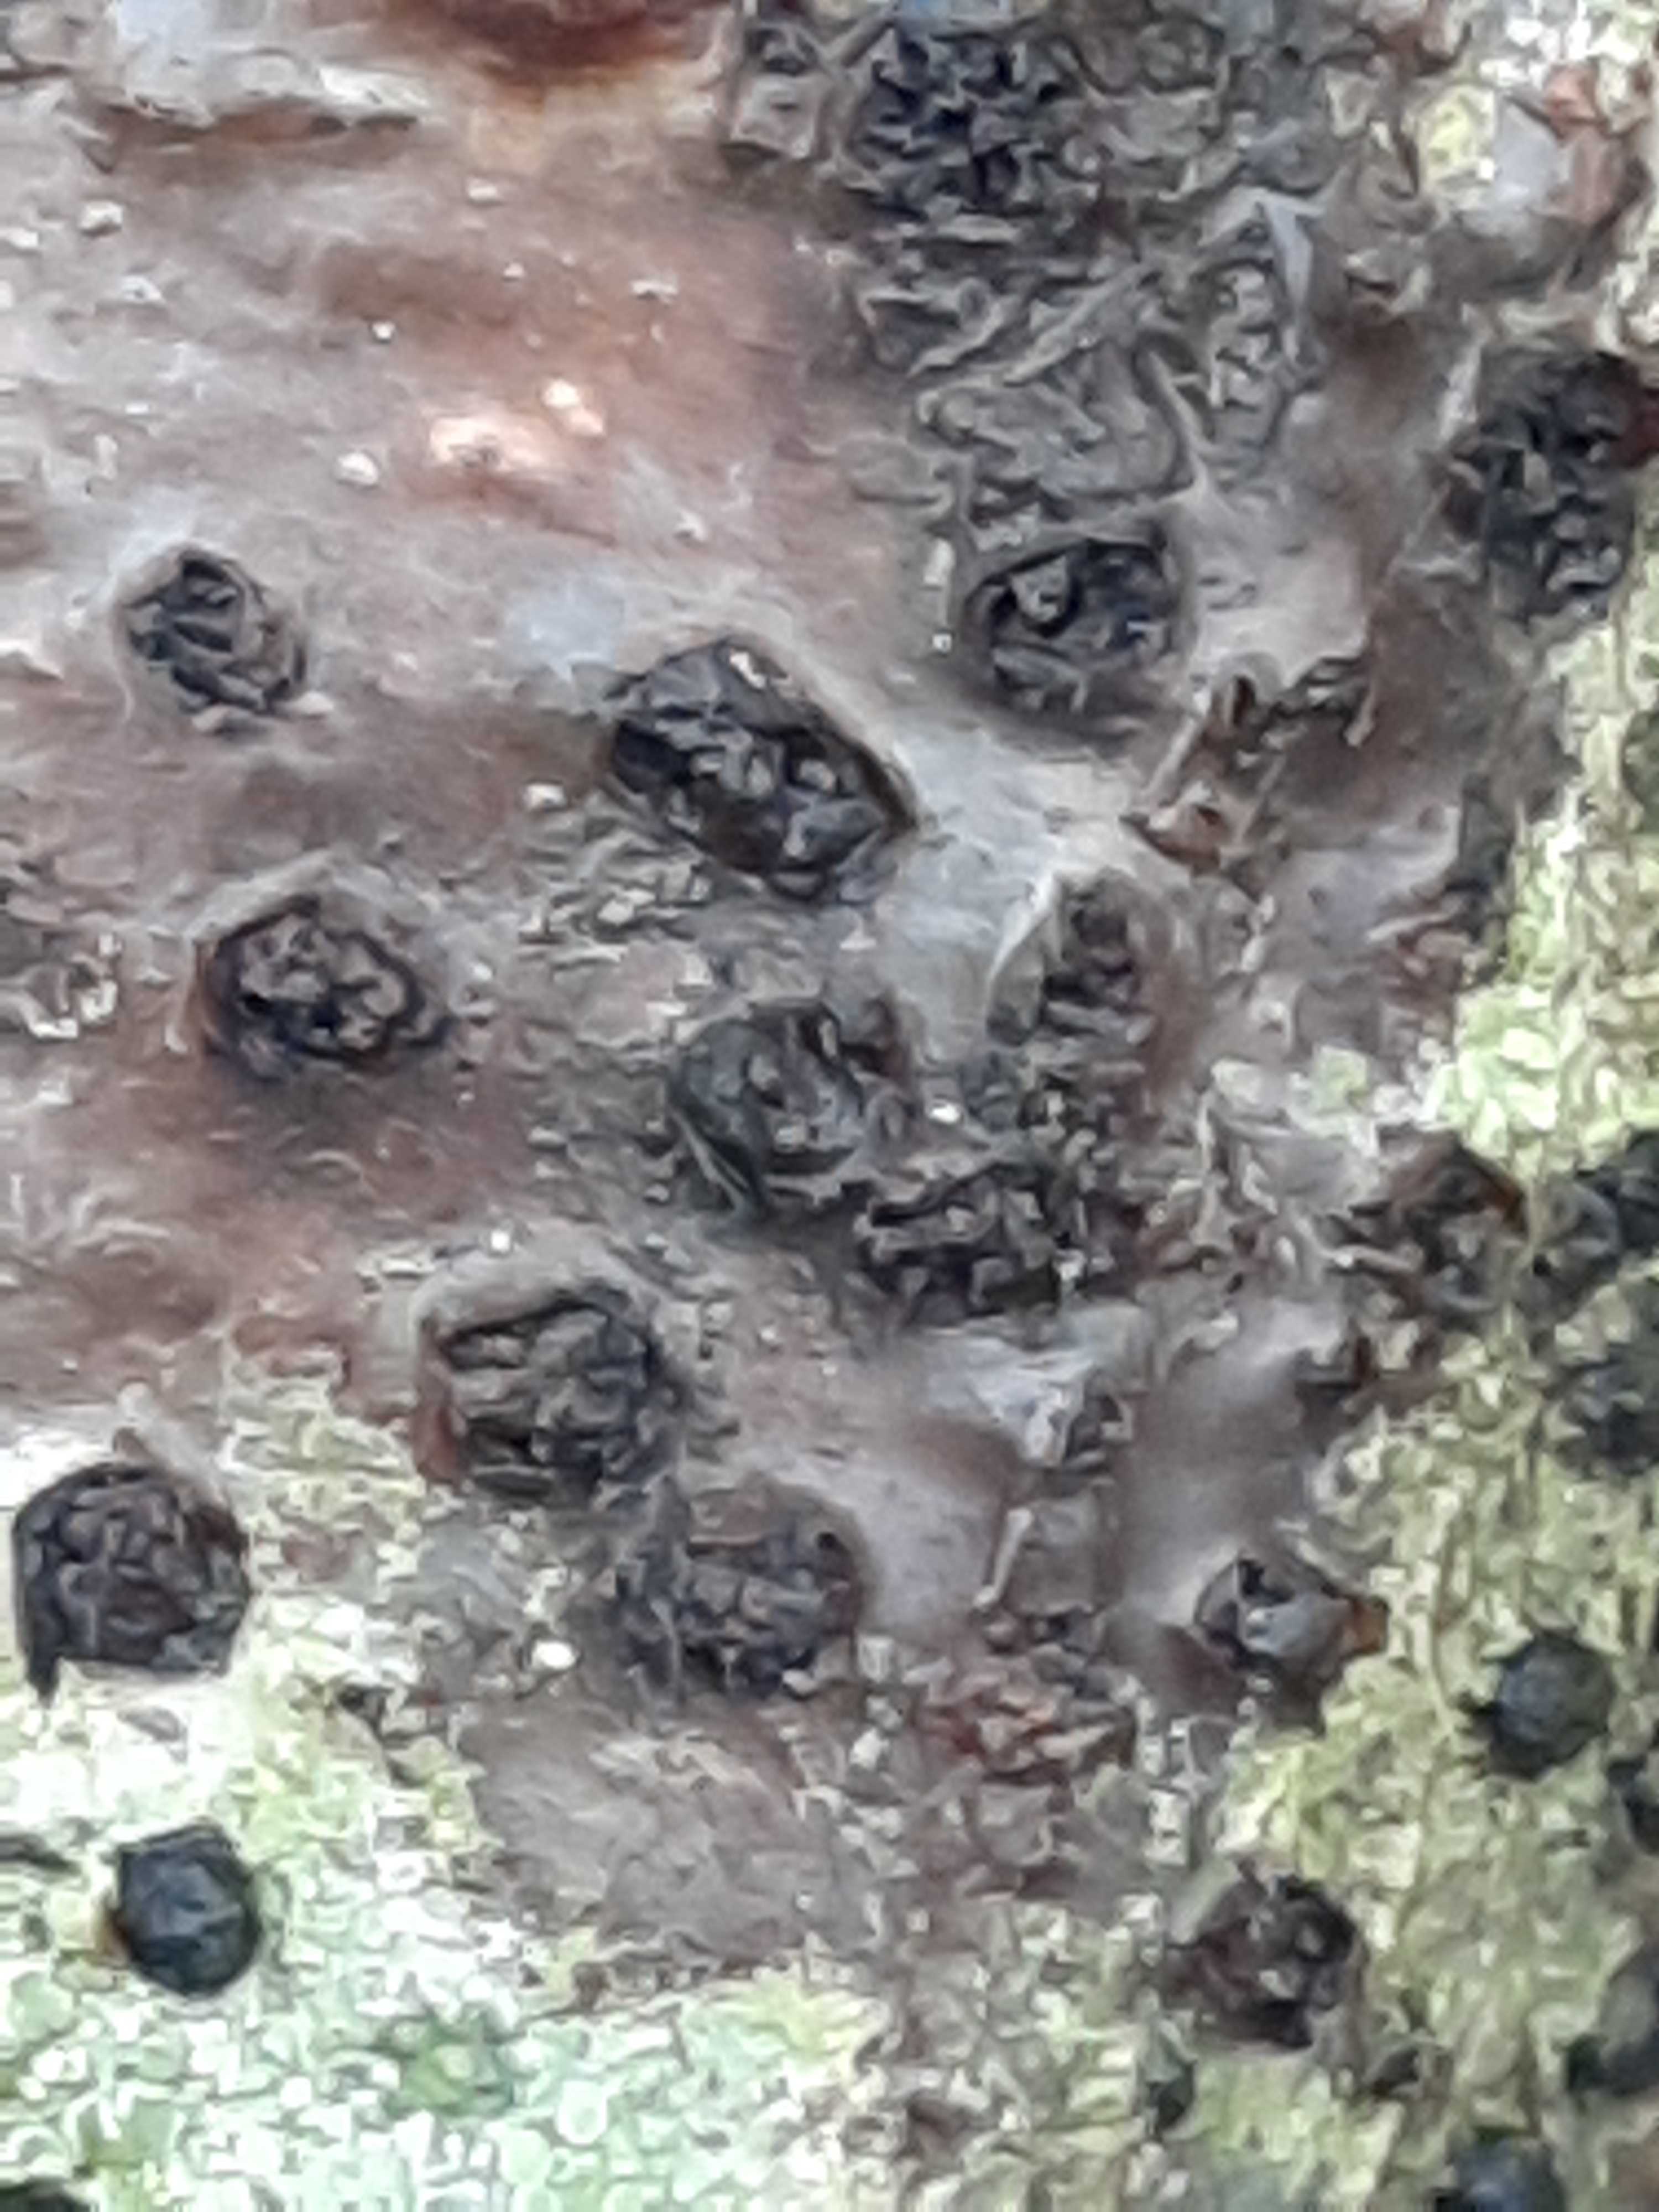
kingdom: Fungi
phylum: Ascomycota
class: Sordariomycetes
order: Xylariales
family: Diatrypaceae
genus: Diatrypella
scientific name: Diatrypella quercina
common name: ege-kulskorpe
